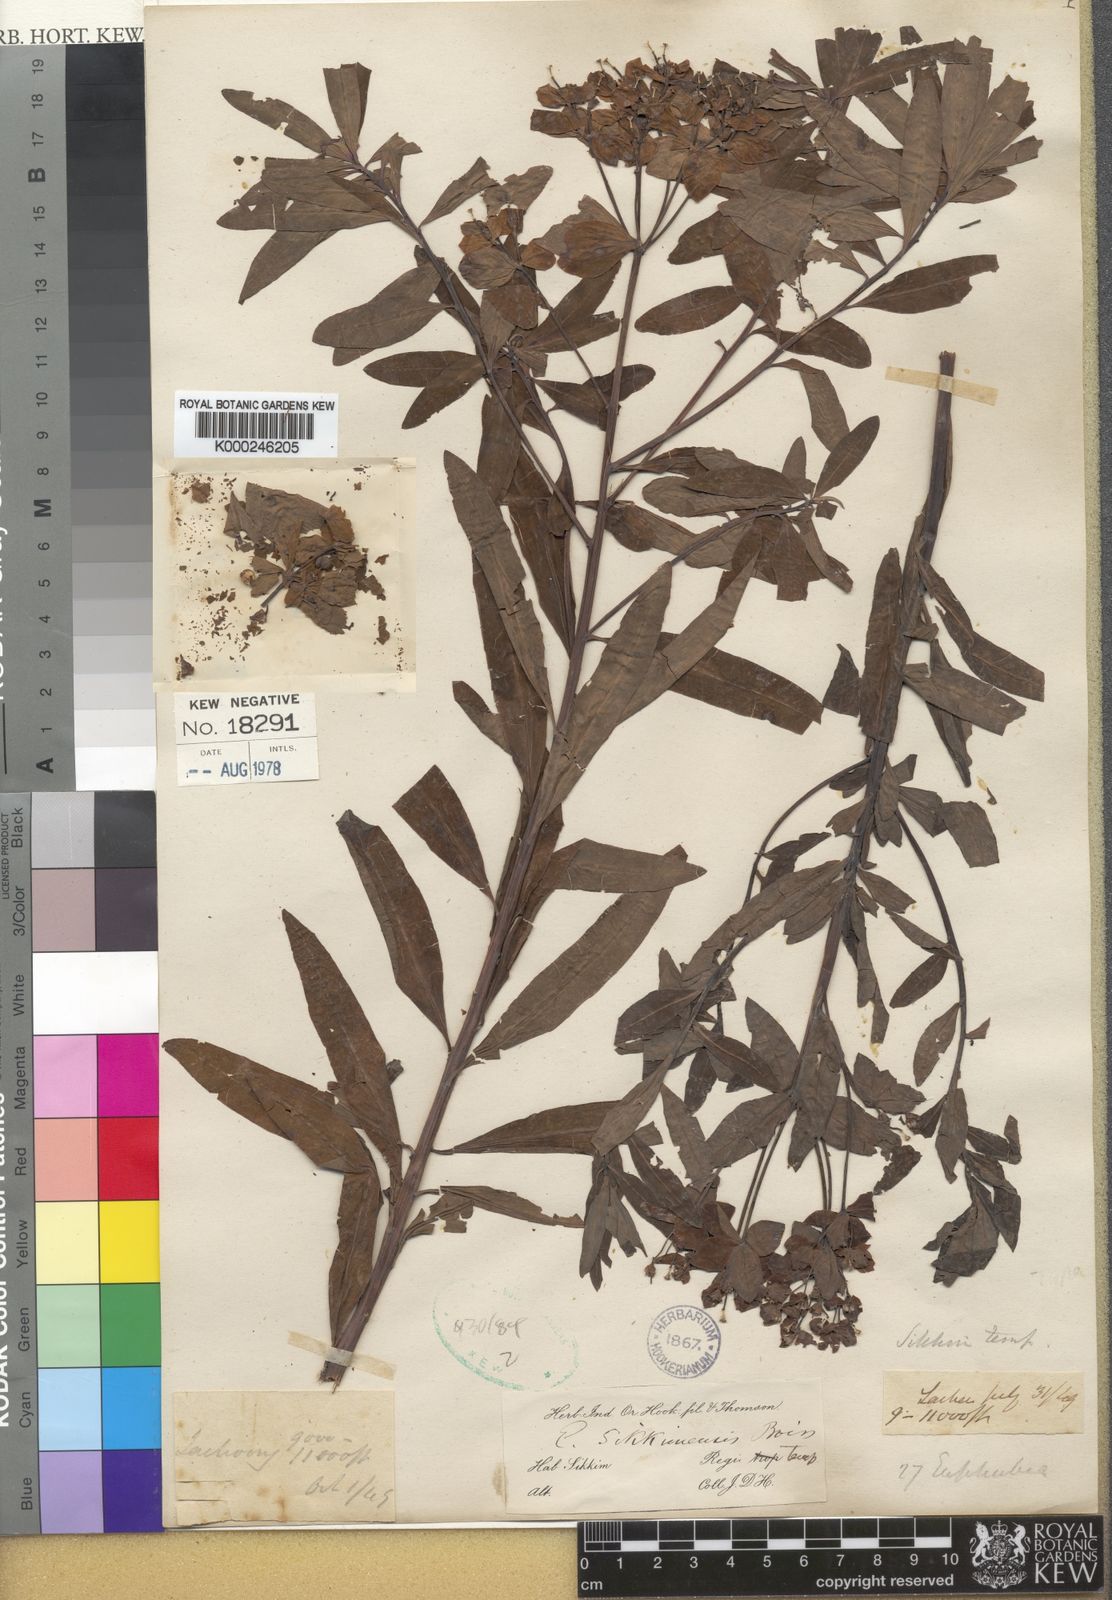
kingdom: Plantae
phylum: Tracheophyta
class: Magnoliopsida
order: Malpighiales
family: Euphorbiaceae
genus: Euphorbia
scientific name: Euphorbia sikkimensis
